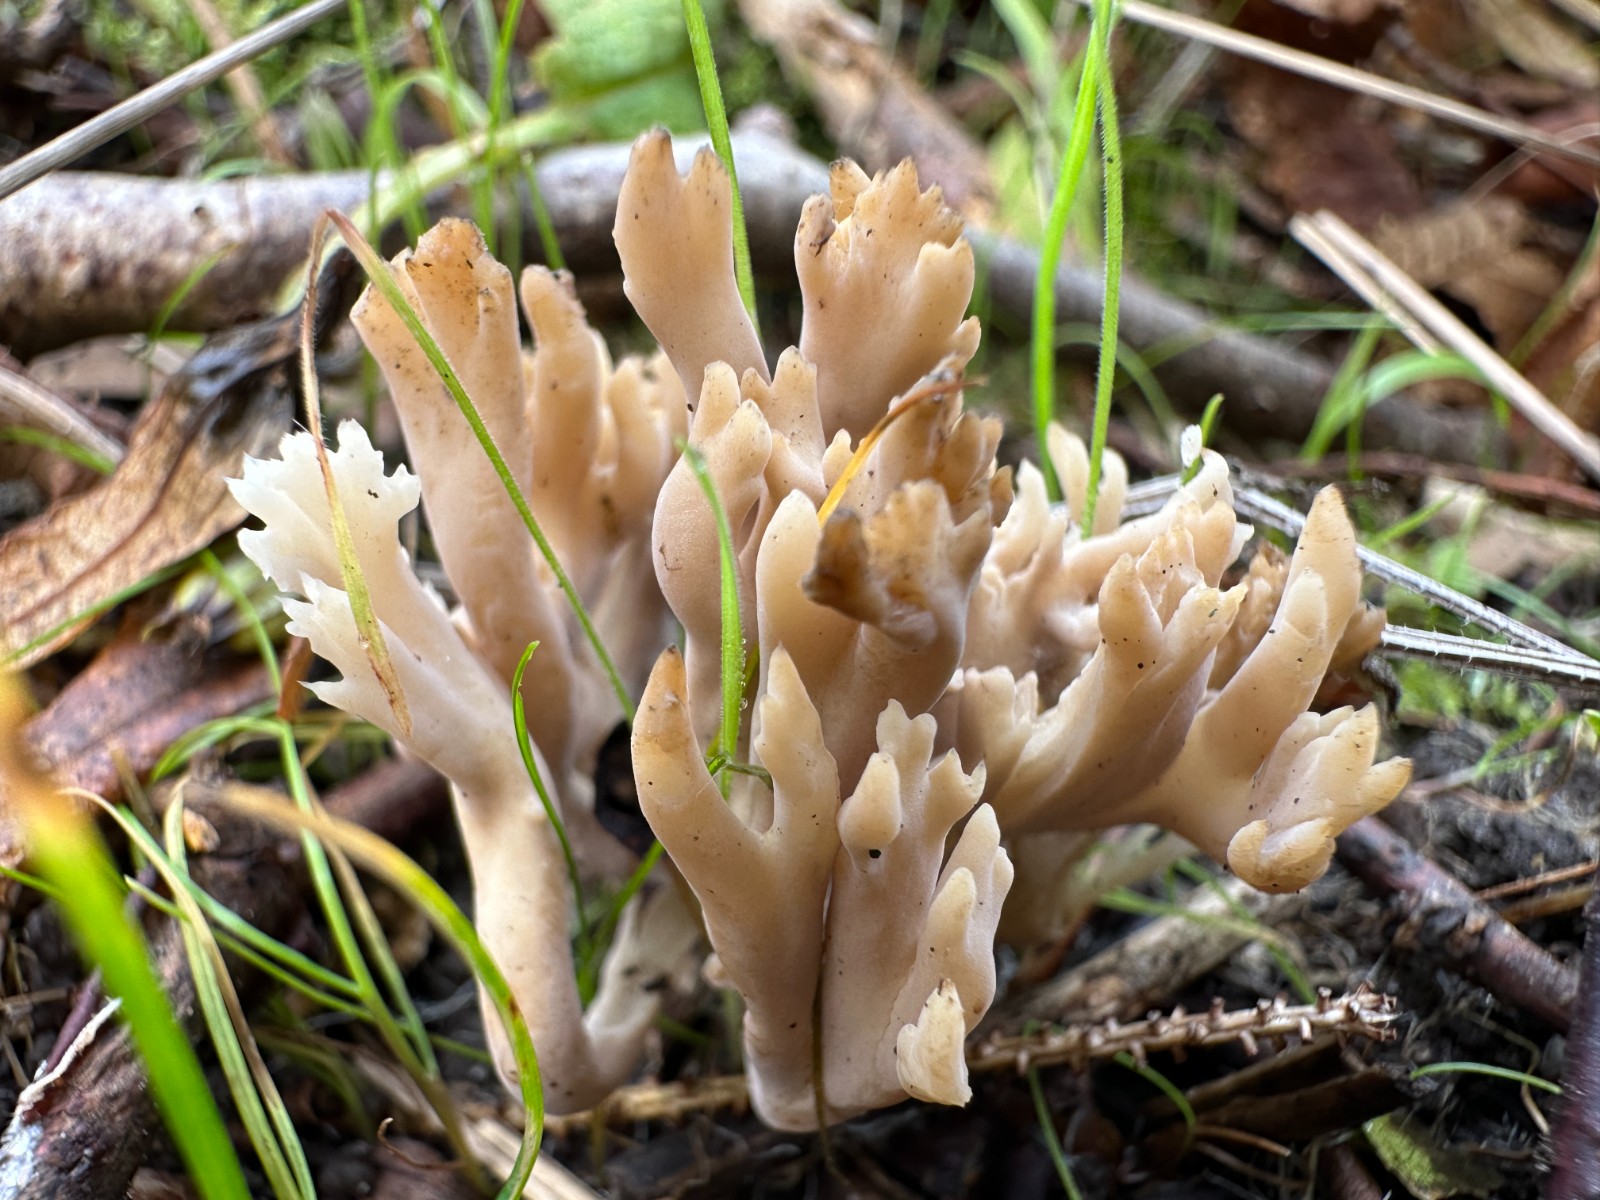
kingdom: Fungi
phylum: Basidiomycota
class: Agaricomycetes
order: Cantharellales
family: Hydnaceae
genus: Clavulina
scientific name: Clavulina
